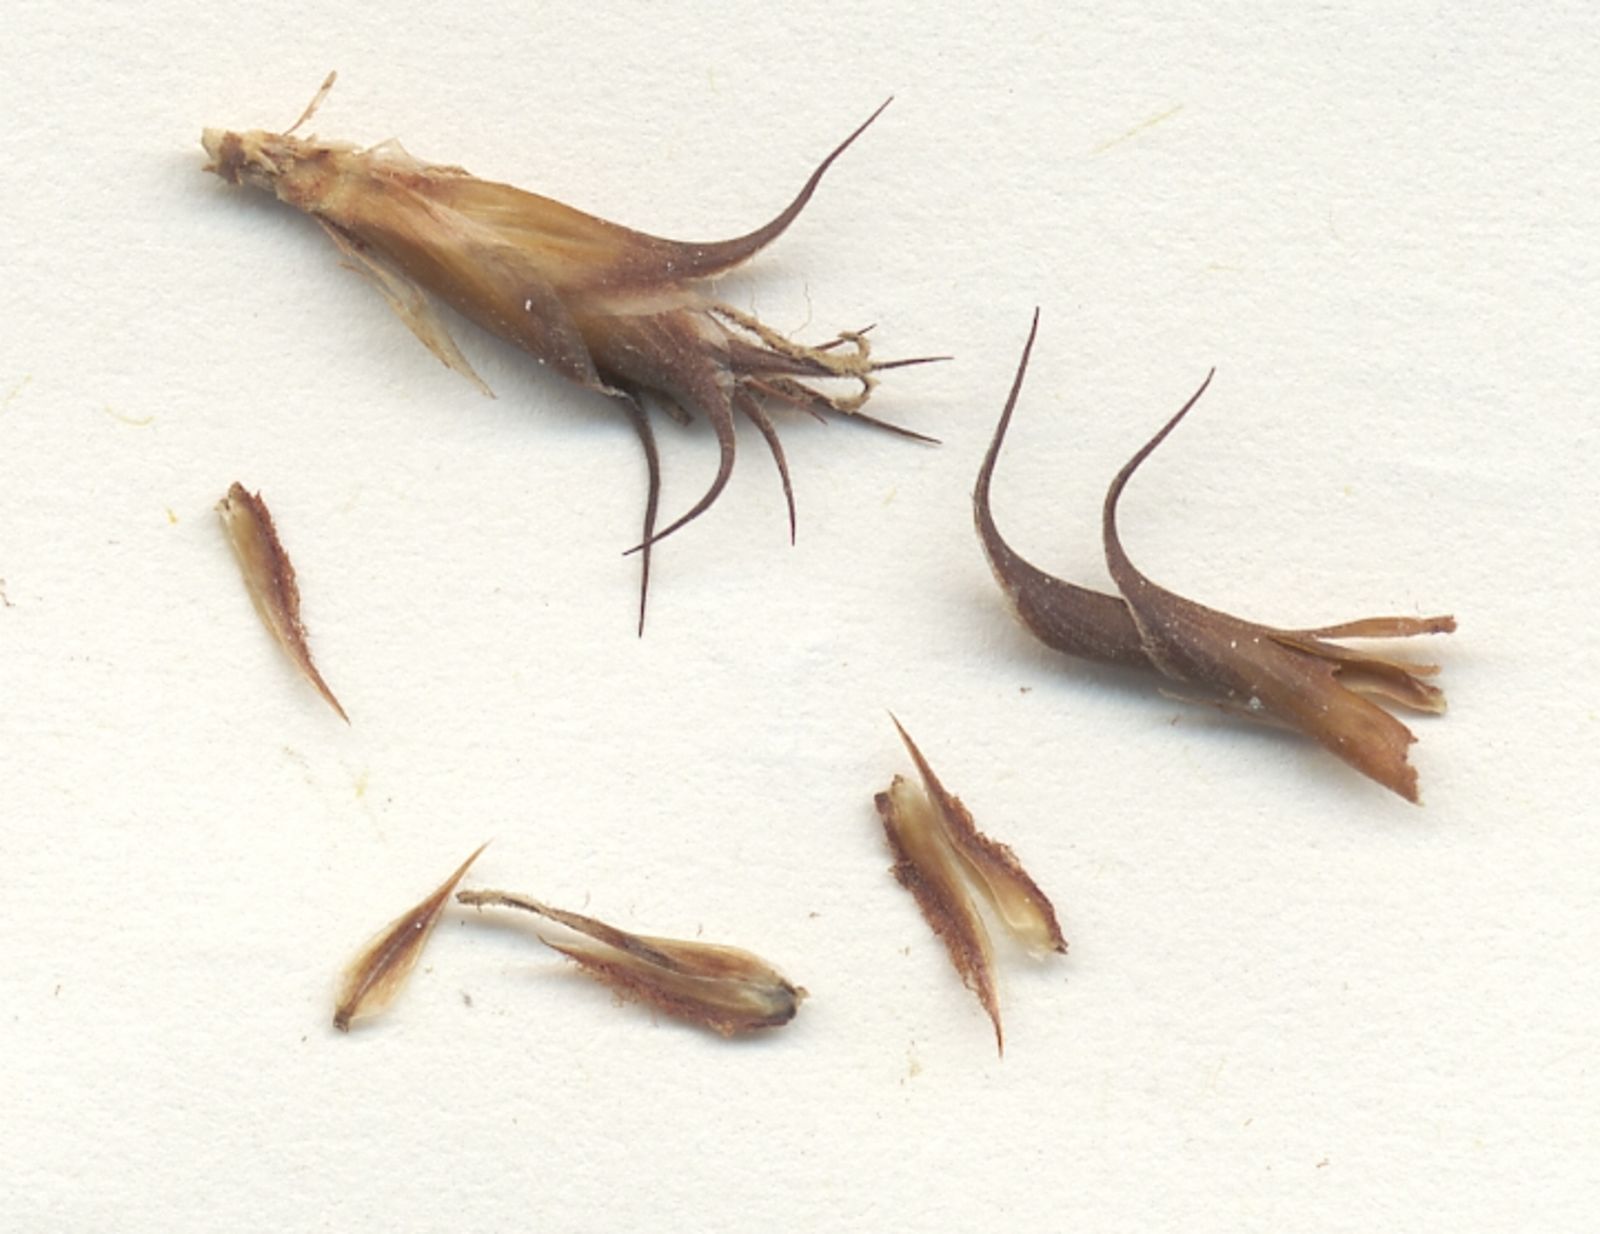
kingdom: Plantae
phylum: Tracheophyta
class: Liliopsida
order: Poales
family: Restionaceae
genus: Restio
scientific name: Restio affinis
